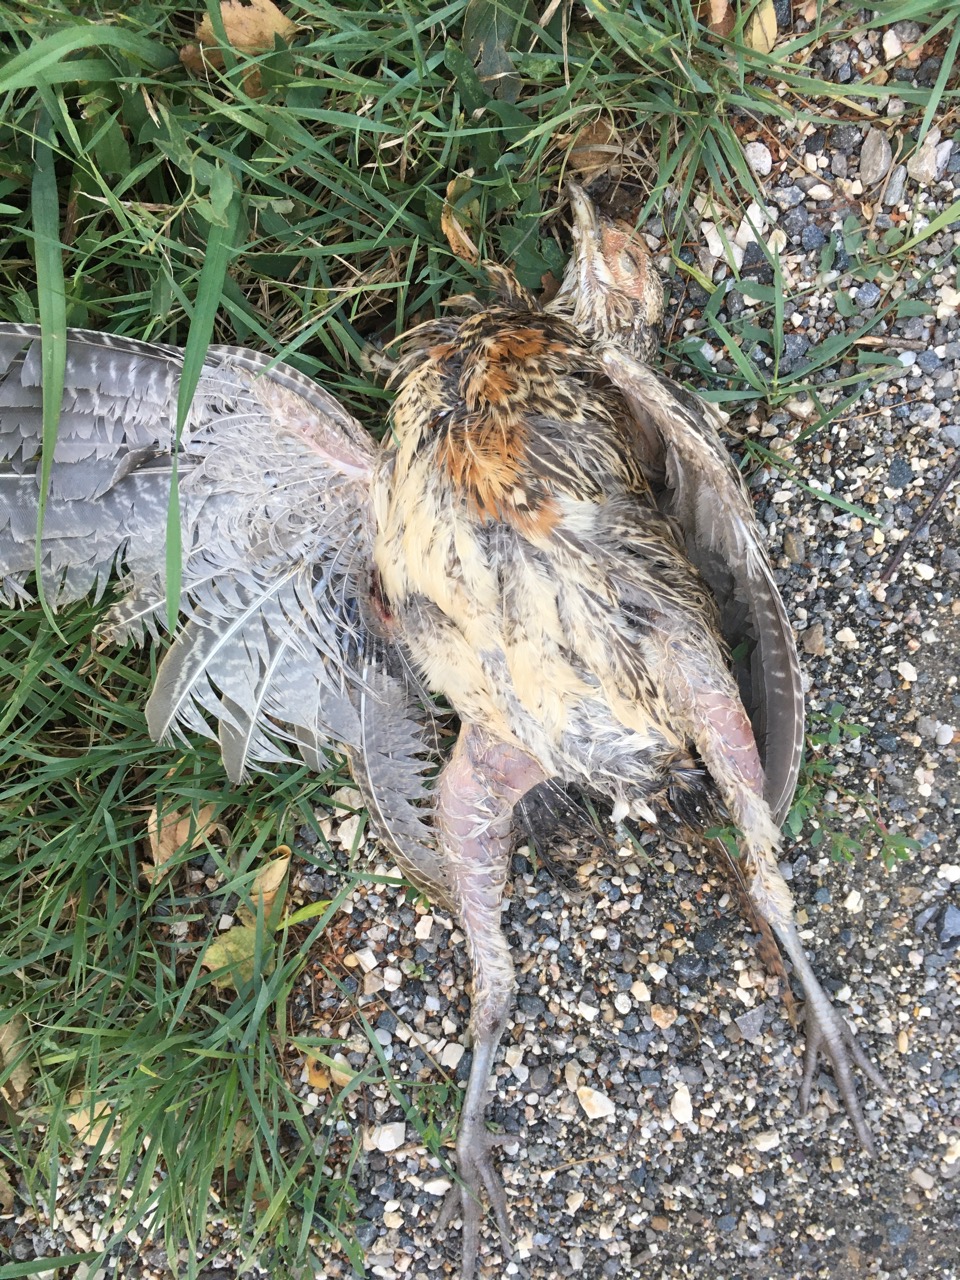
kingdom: Animalia
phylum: Chordata
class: Aves
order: Galliformes
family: Phasianidae
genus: Phasianus
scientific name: Phasianus colchicus
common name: Common pheasant
